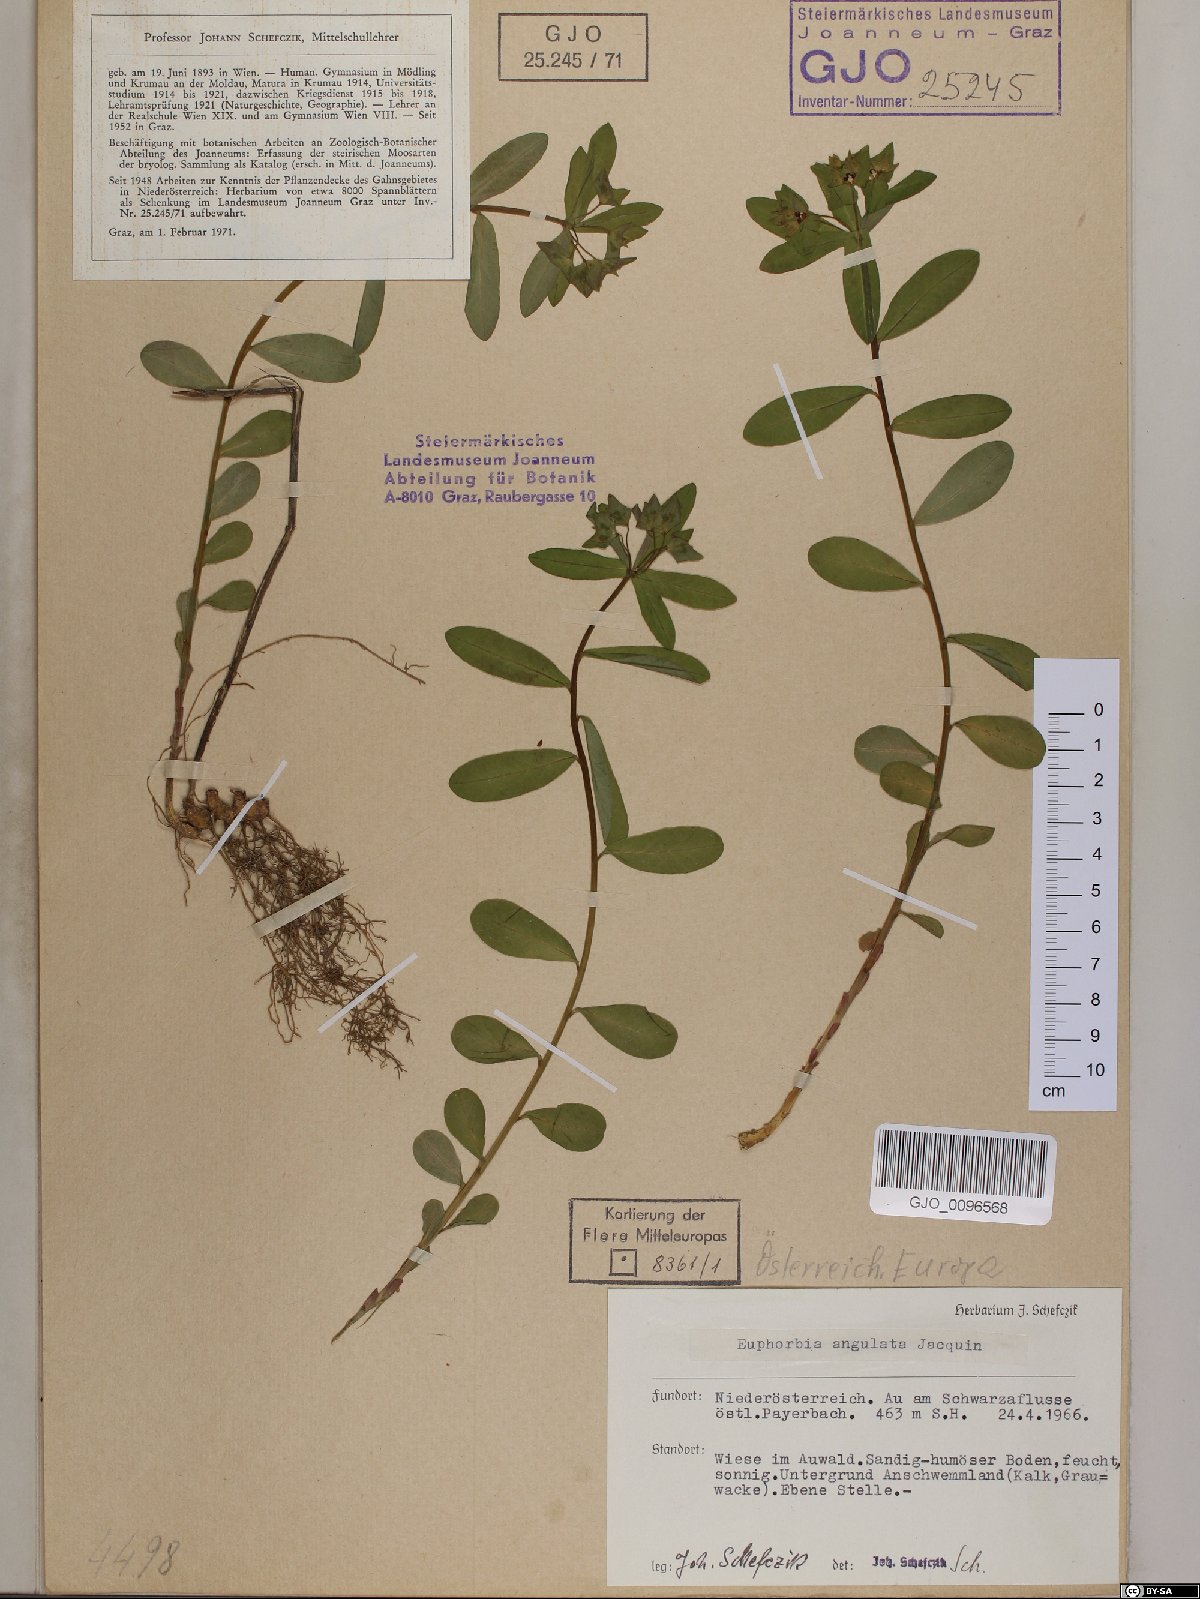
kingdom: Plantae
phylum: Tracheophyta
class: Magnoliopsida
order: Malpighiales
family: Euphorbiaceae
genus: Euphorbia
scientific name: Euphorbia angulata
